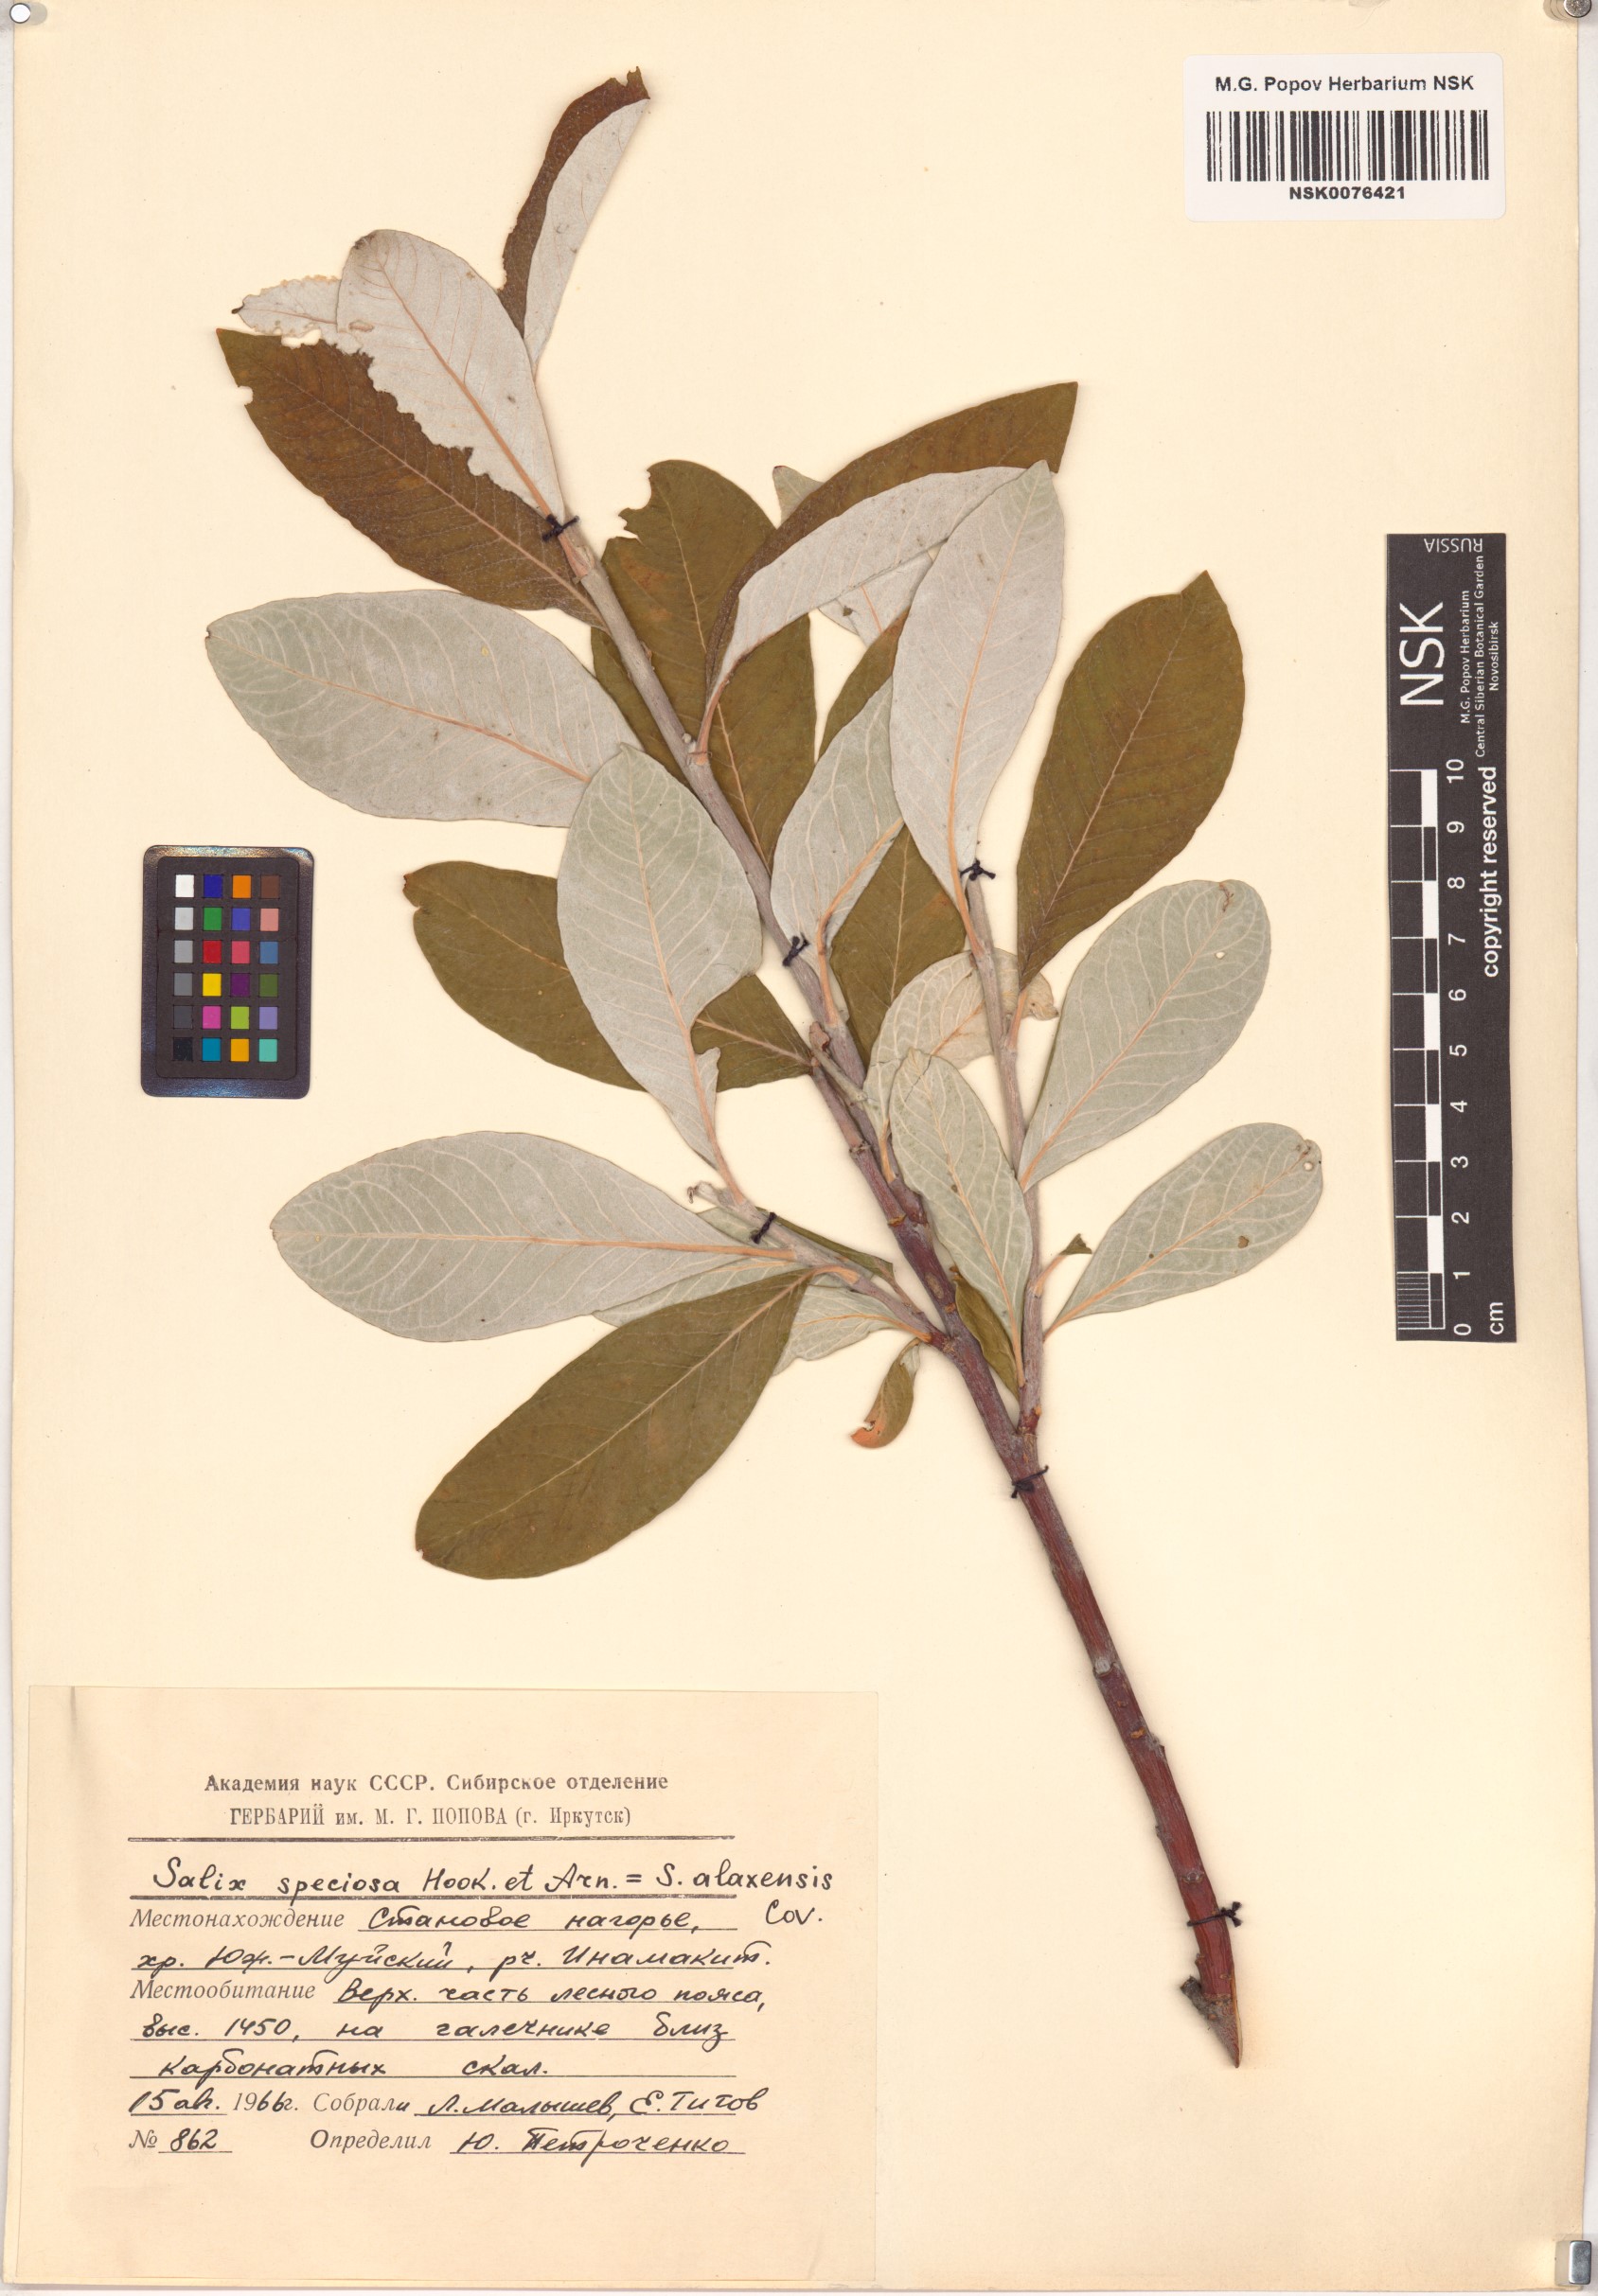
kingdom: Plantae
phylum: Tracheophyta
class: Magnoliopsida
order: Malpighiales
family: Salicaceae
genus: Salix
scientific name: Salix alaxensis
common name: Feltleaf willow
